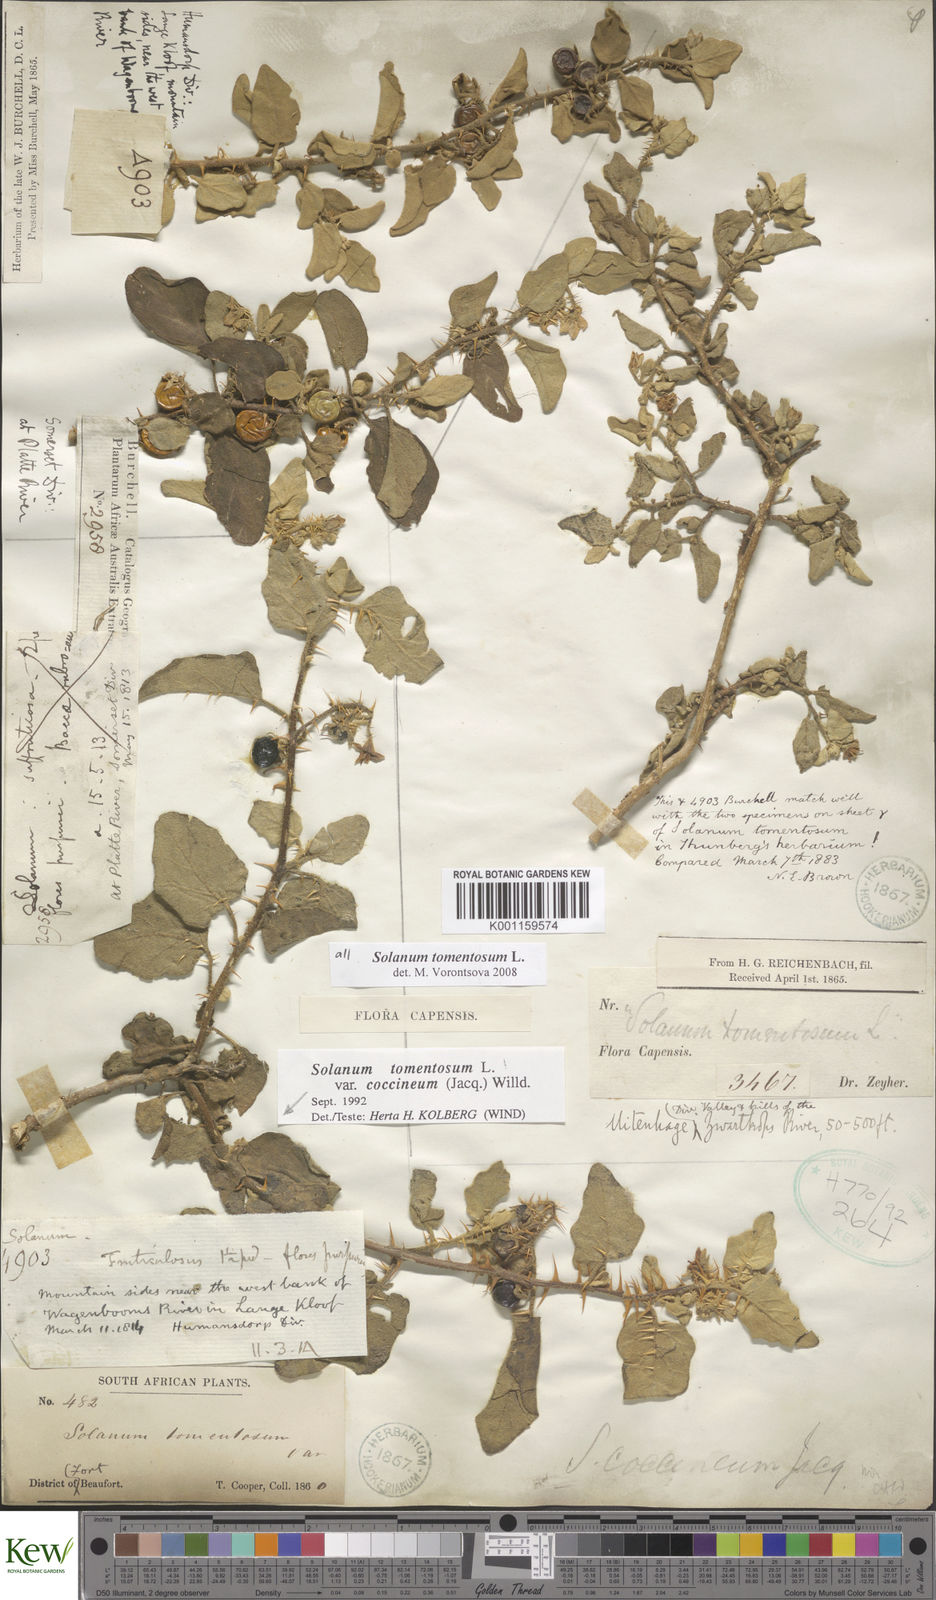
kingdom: Plantae
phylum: Tracheophyta
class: Magnoliopsida
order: Solanales
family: Solanaceae
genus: Solanum
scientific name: Solanum tomentosum
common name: Wild aubergine
